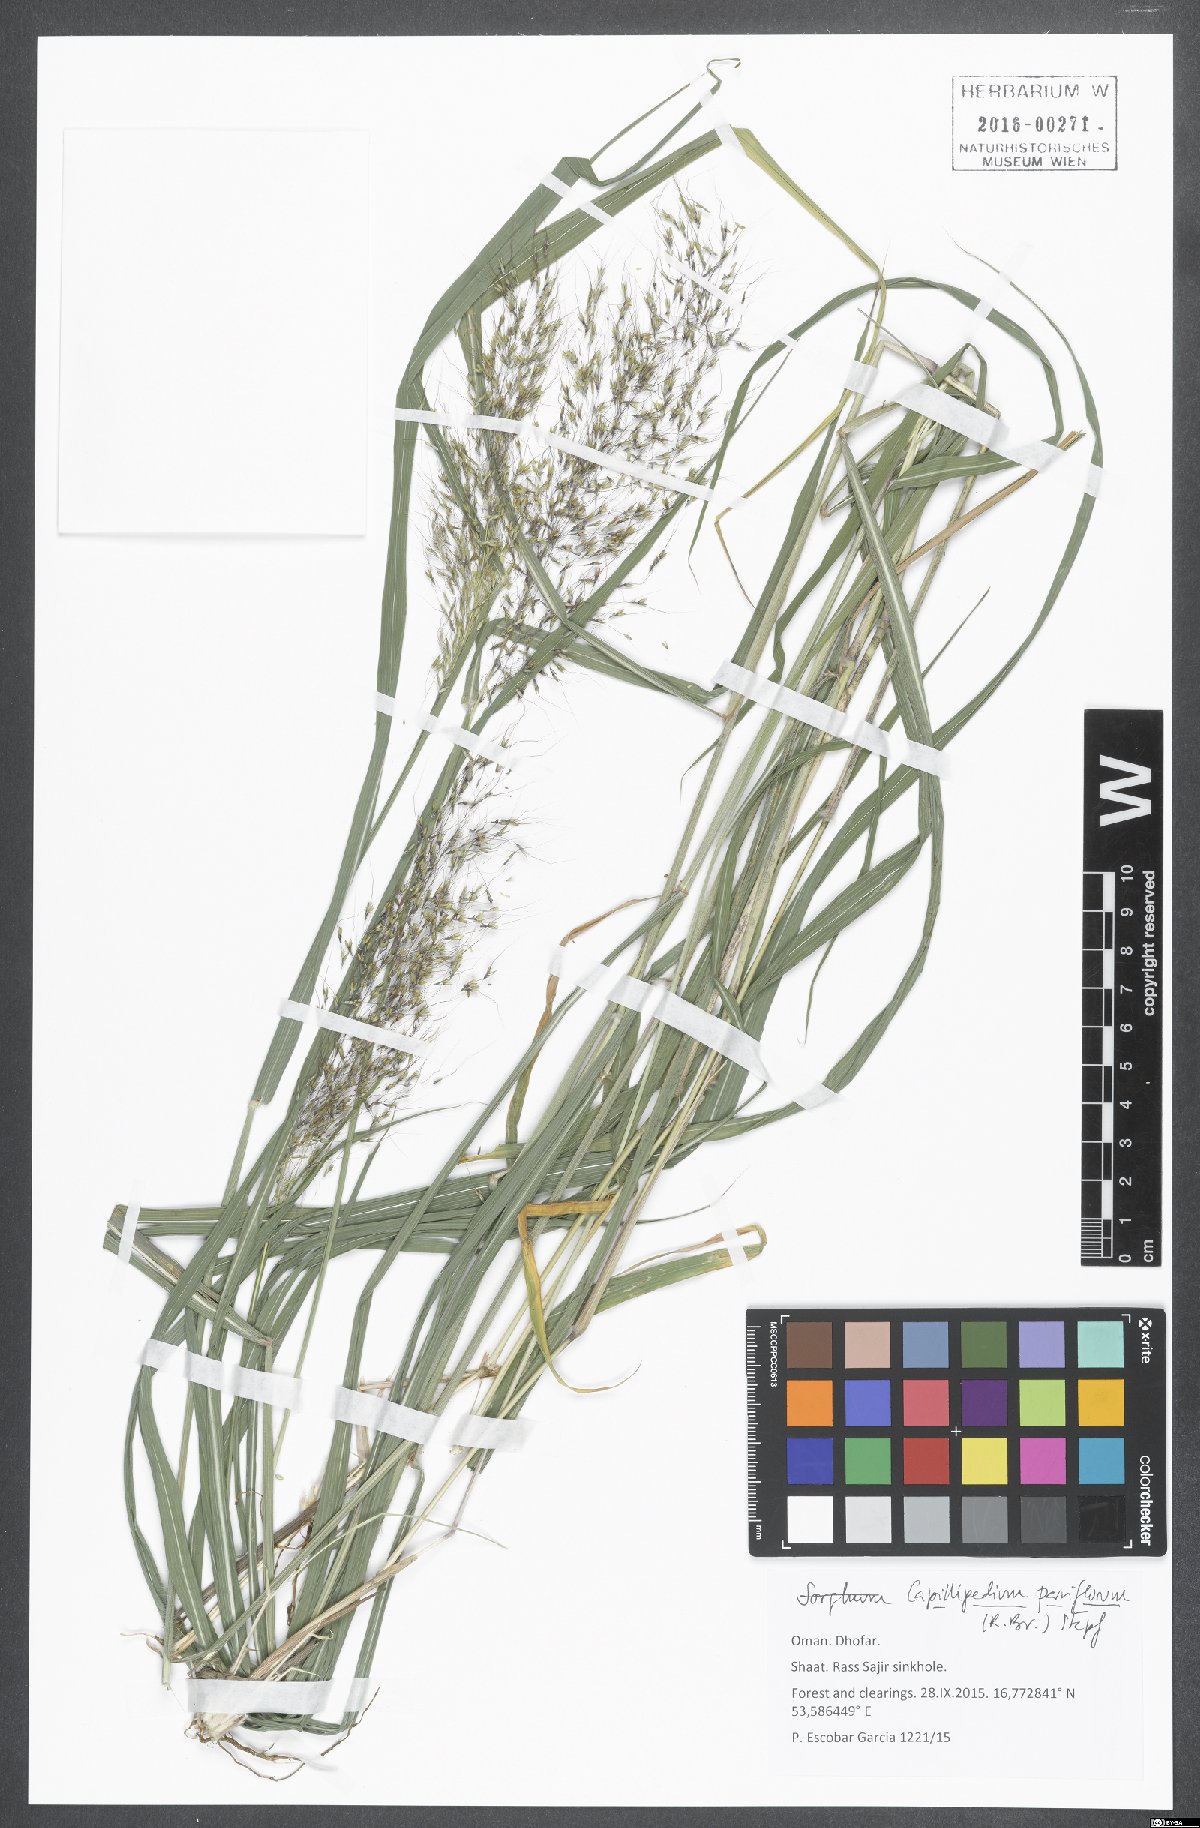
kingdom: Plantae
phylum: Tracheophyta
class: Liliopsida
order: Poales
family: Poaceae
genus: Capillipedium
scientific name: Capillipedium parviflorum
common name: Golden-beard
